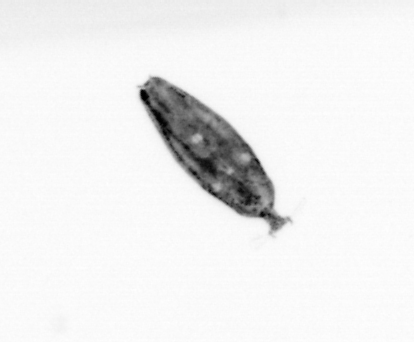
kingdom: Animalia
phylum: Arthropoda
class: Maxillopoda
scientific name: Maxillopoda
